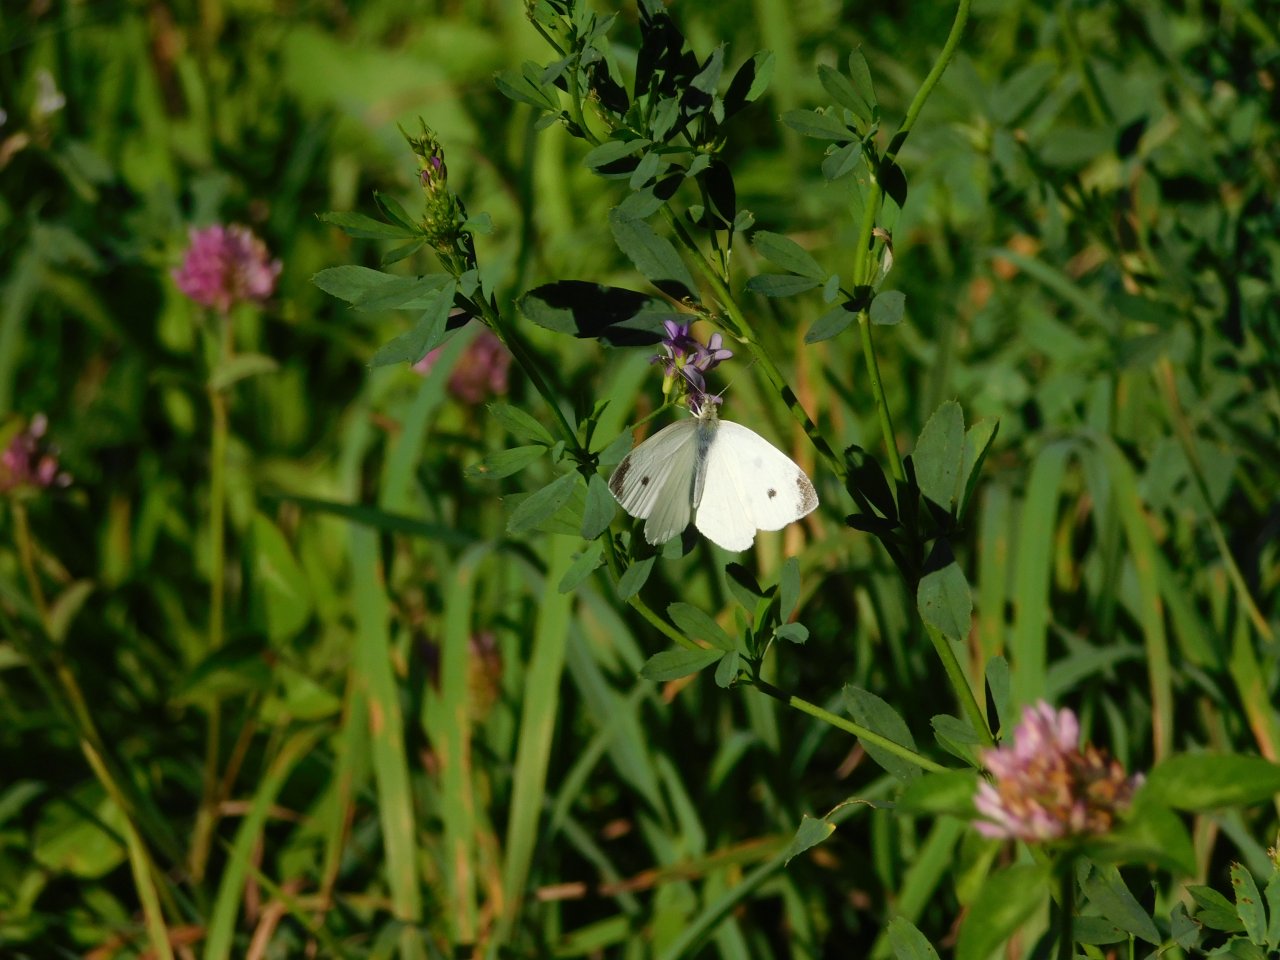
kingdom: Animalia
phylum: Arthropoda
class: Insecta
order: Lepidoptera
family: Pieridae
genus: Pieris
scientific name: Pieris rapae
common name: Cabbage White
